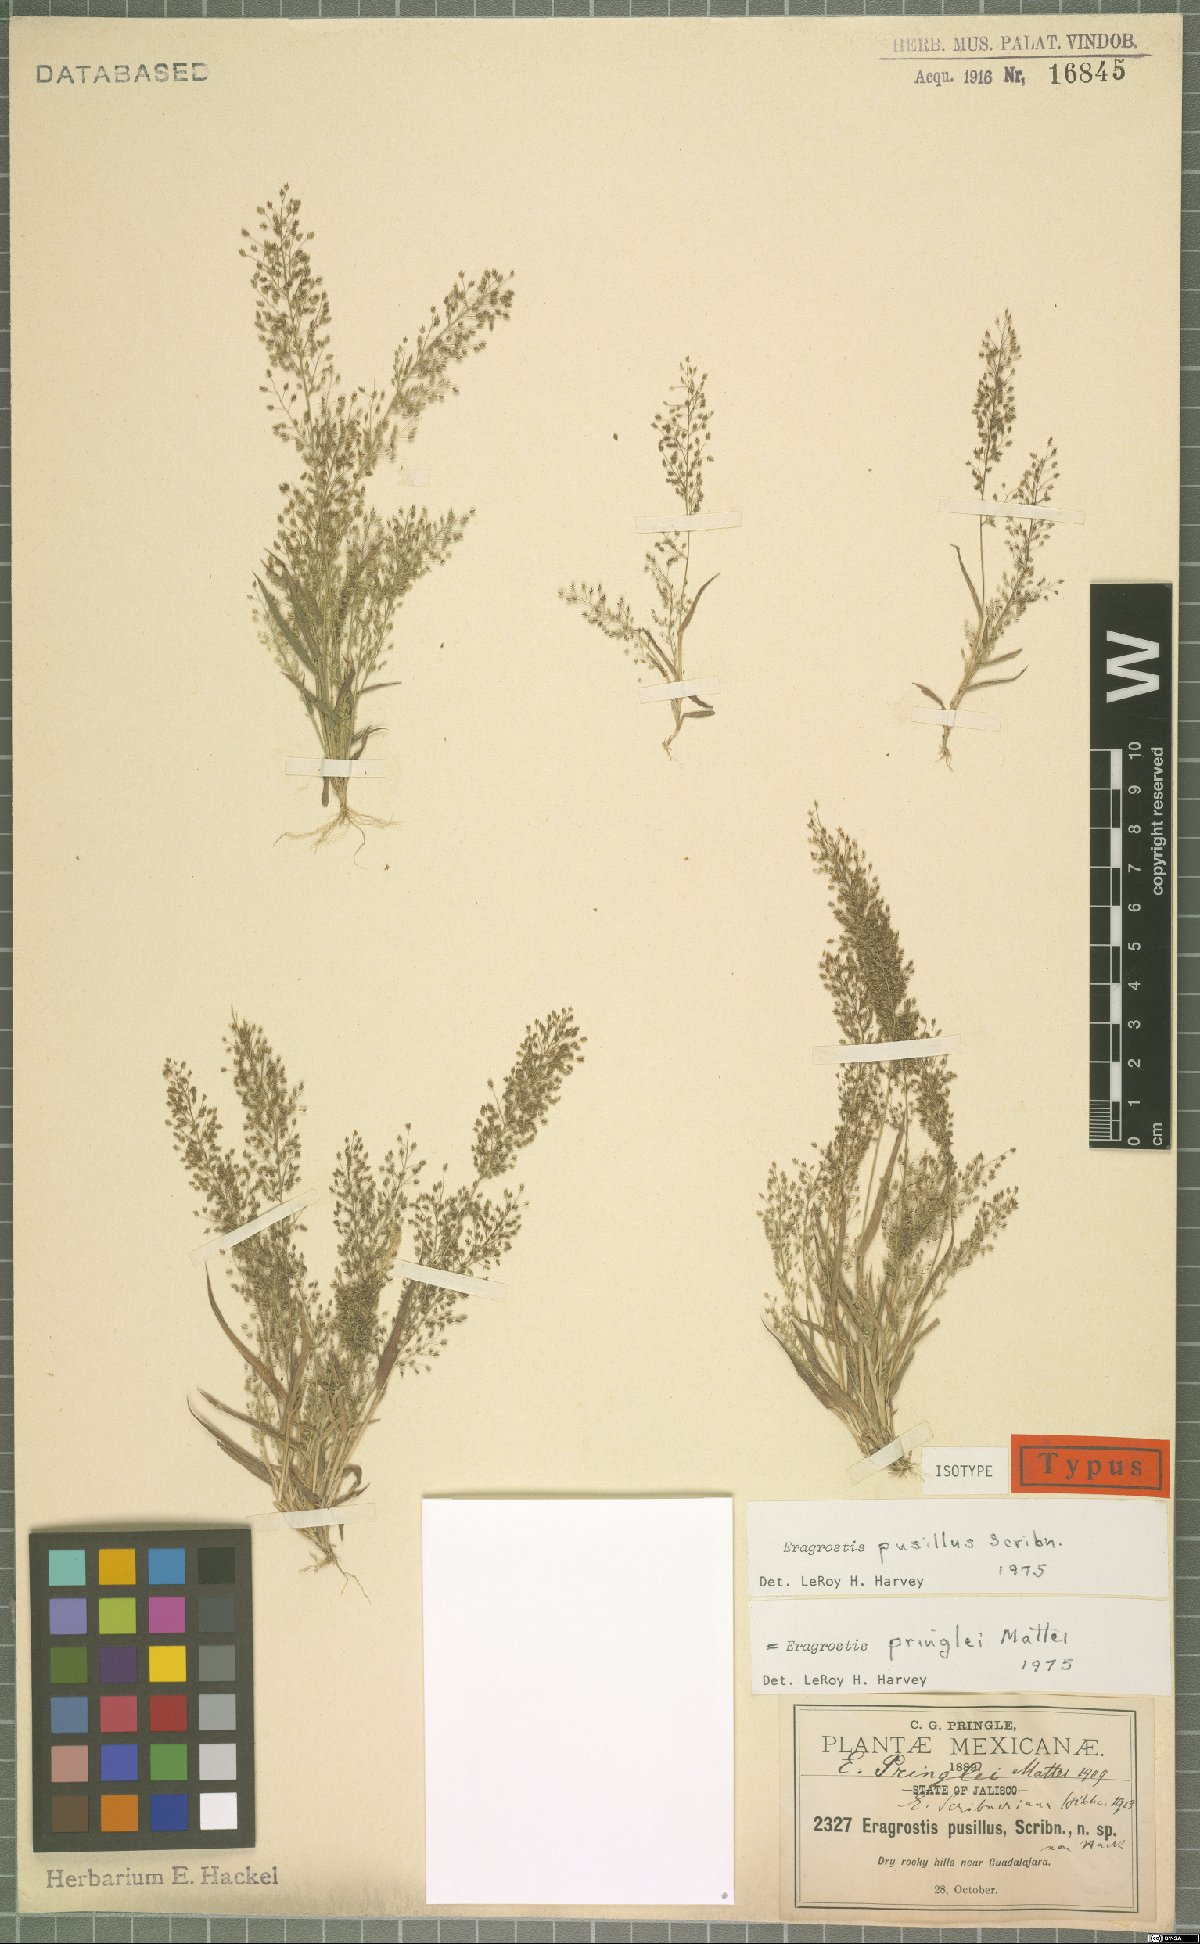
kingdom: Plantae
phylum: Tracheophyta
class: Liliopsida
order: Poales
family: Poaceae
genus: Eragrostis
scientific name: Eragrostis pringlei
